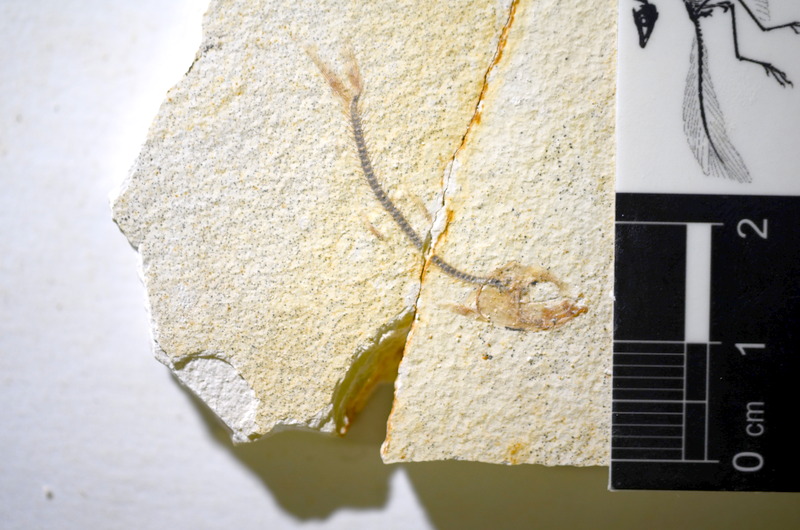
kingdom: Animalia
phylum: Chordata
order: Salmoniformes
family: Orthogonikleithridae
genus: Orthogonikleithrus
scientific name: Orthogonikleithrus hoelli
